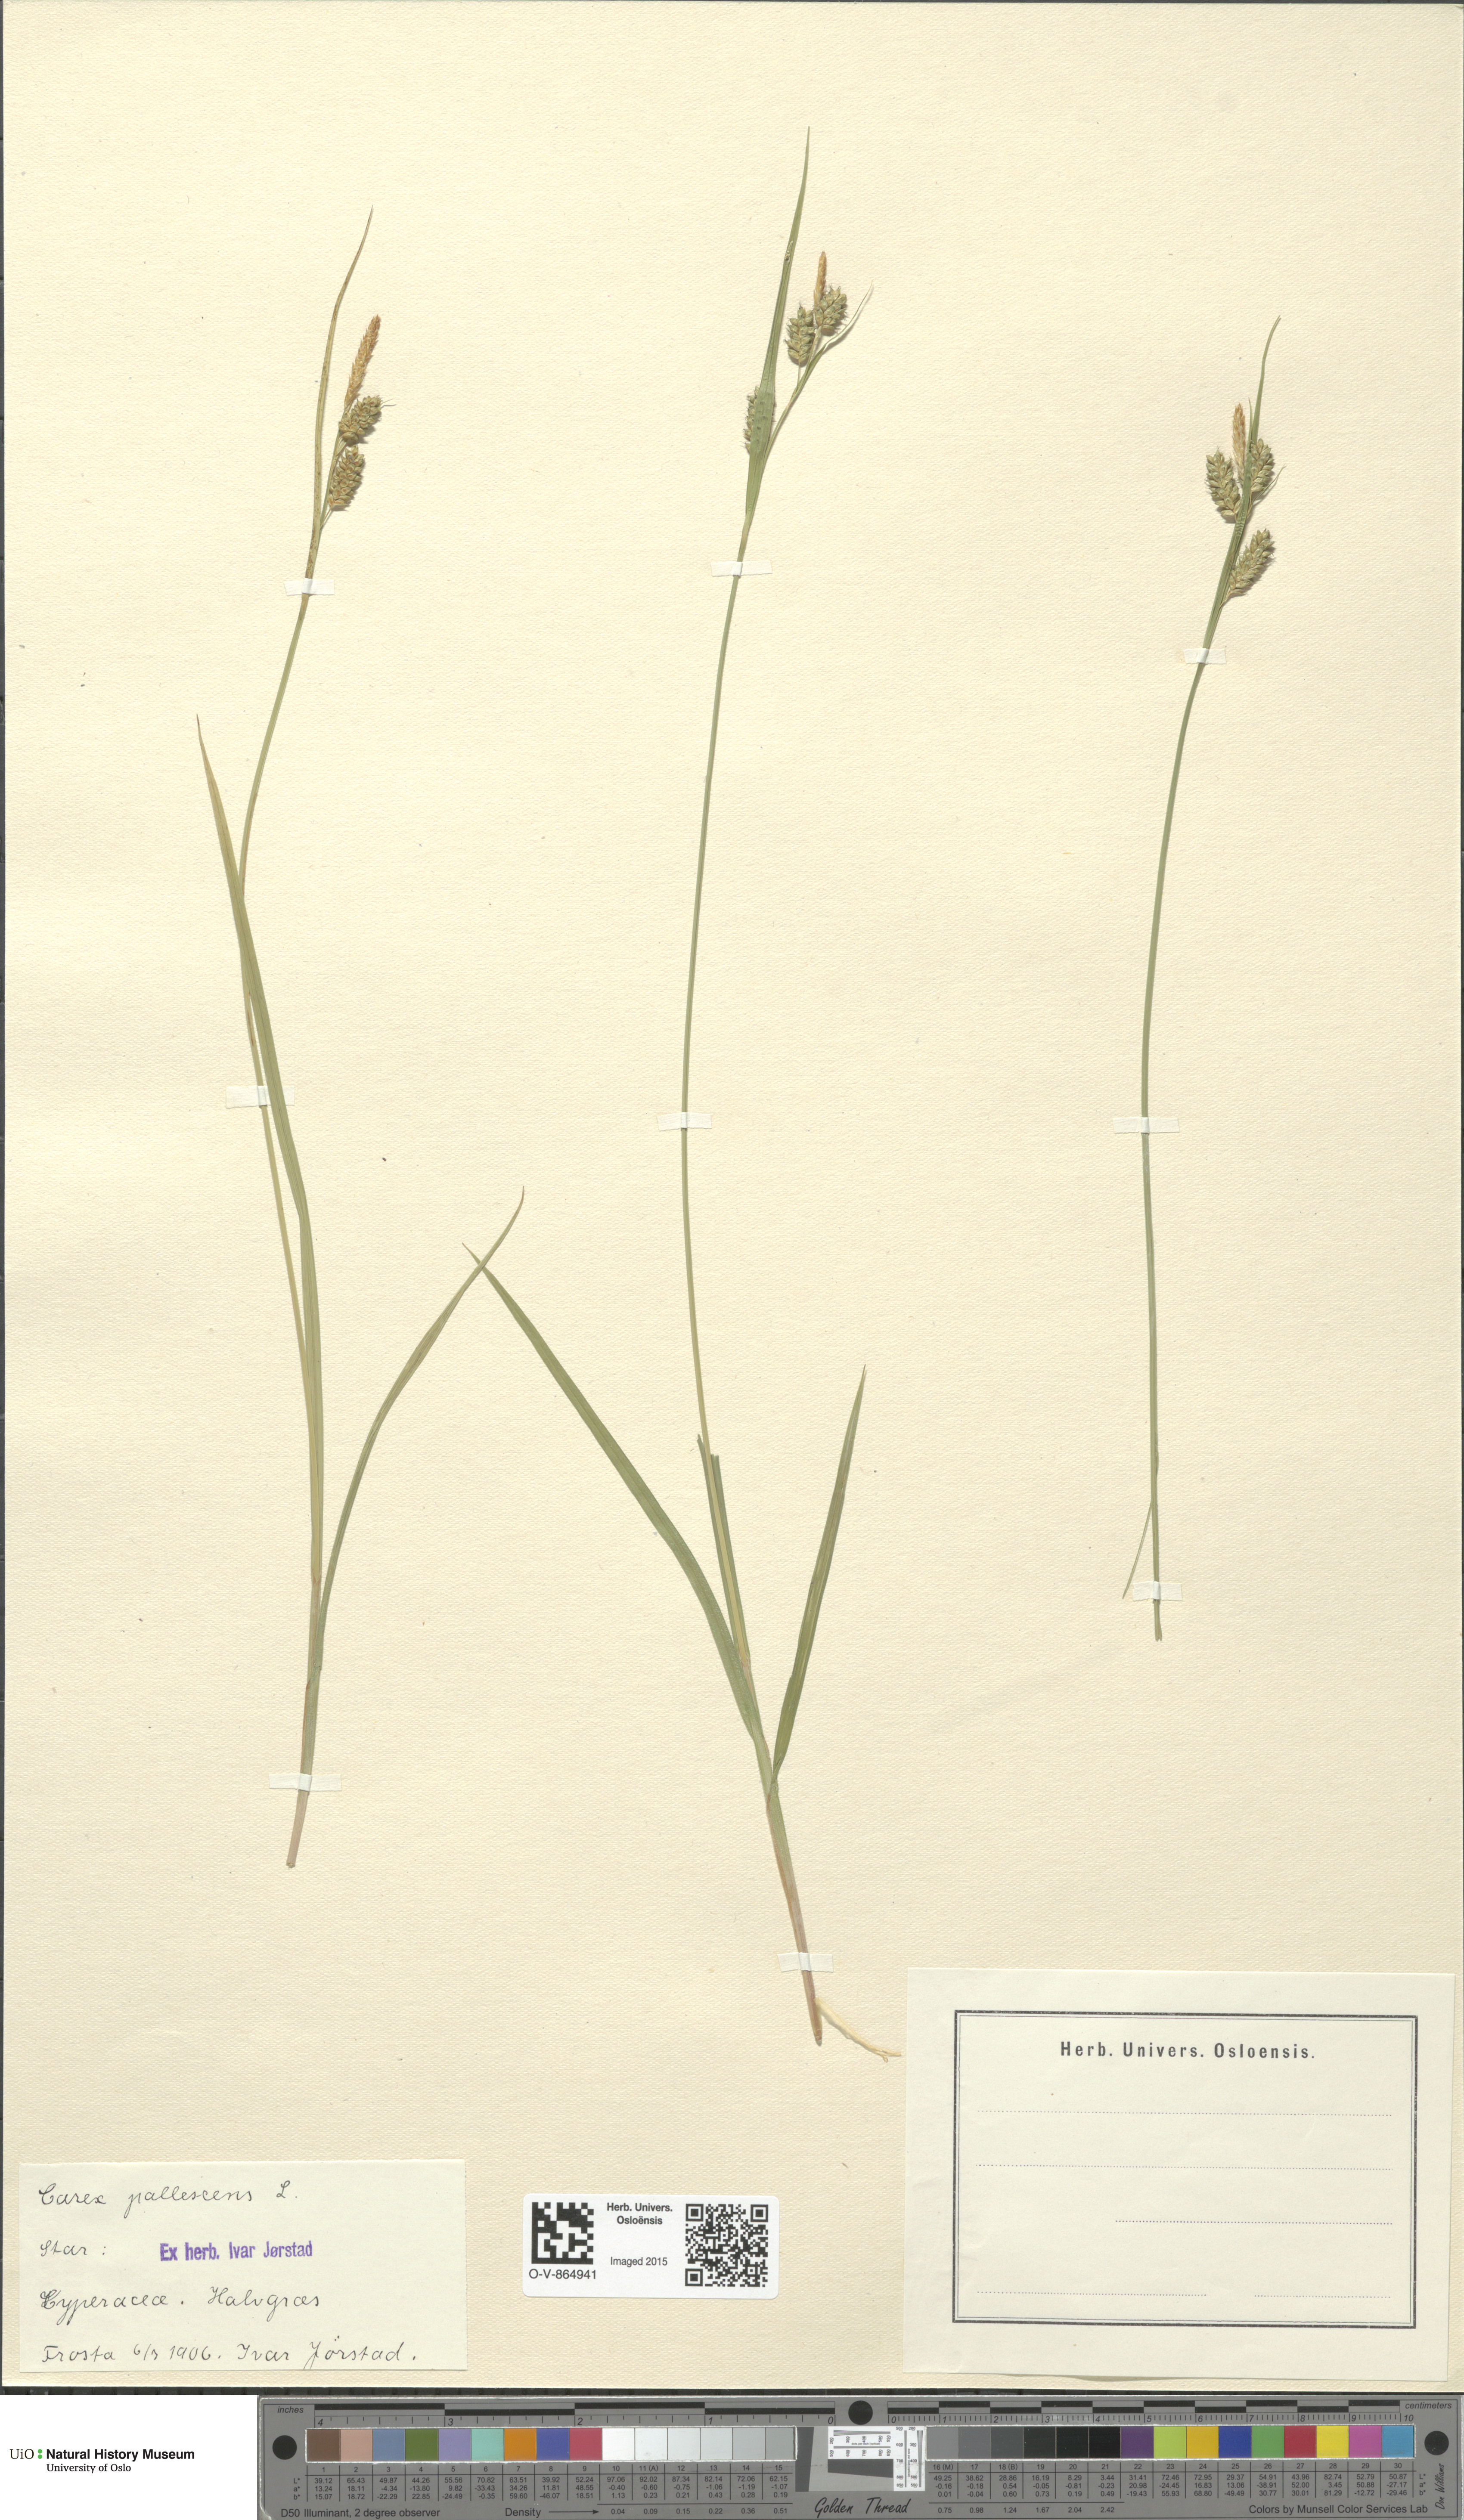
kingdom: Plantae
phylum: Tracheophyta
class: Liliopsida
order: Poales
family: Cyperaceae
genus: Carex
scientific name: Carex pallescens
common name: Pale sedge
